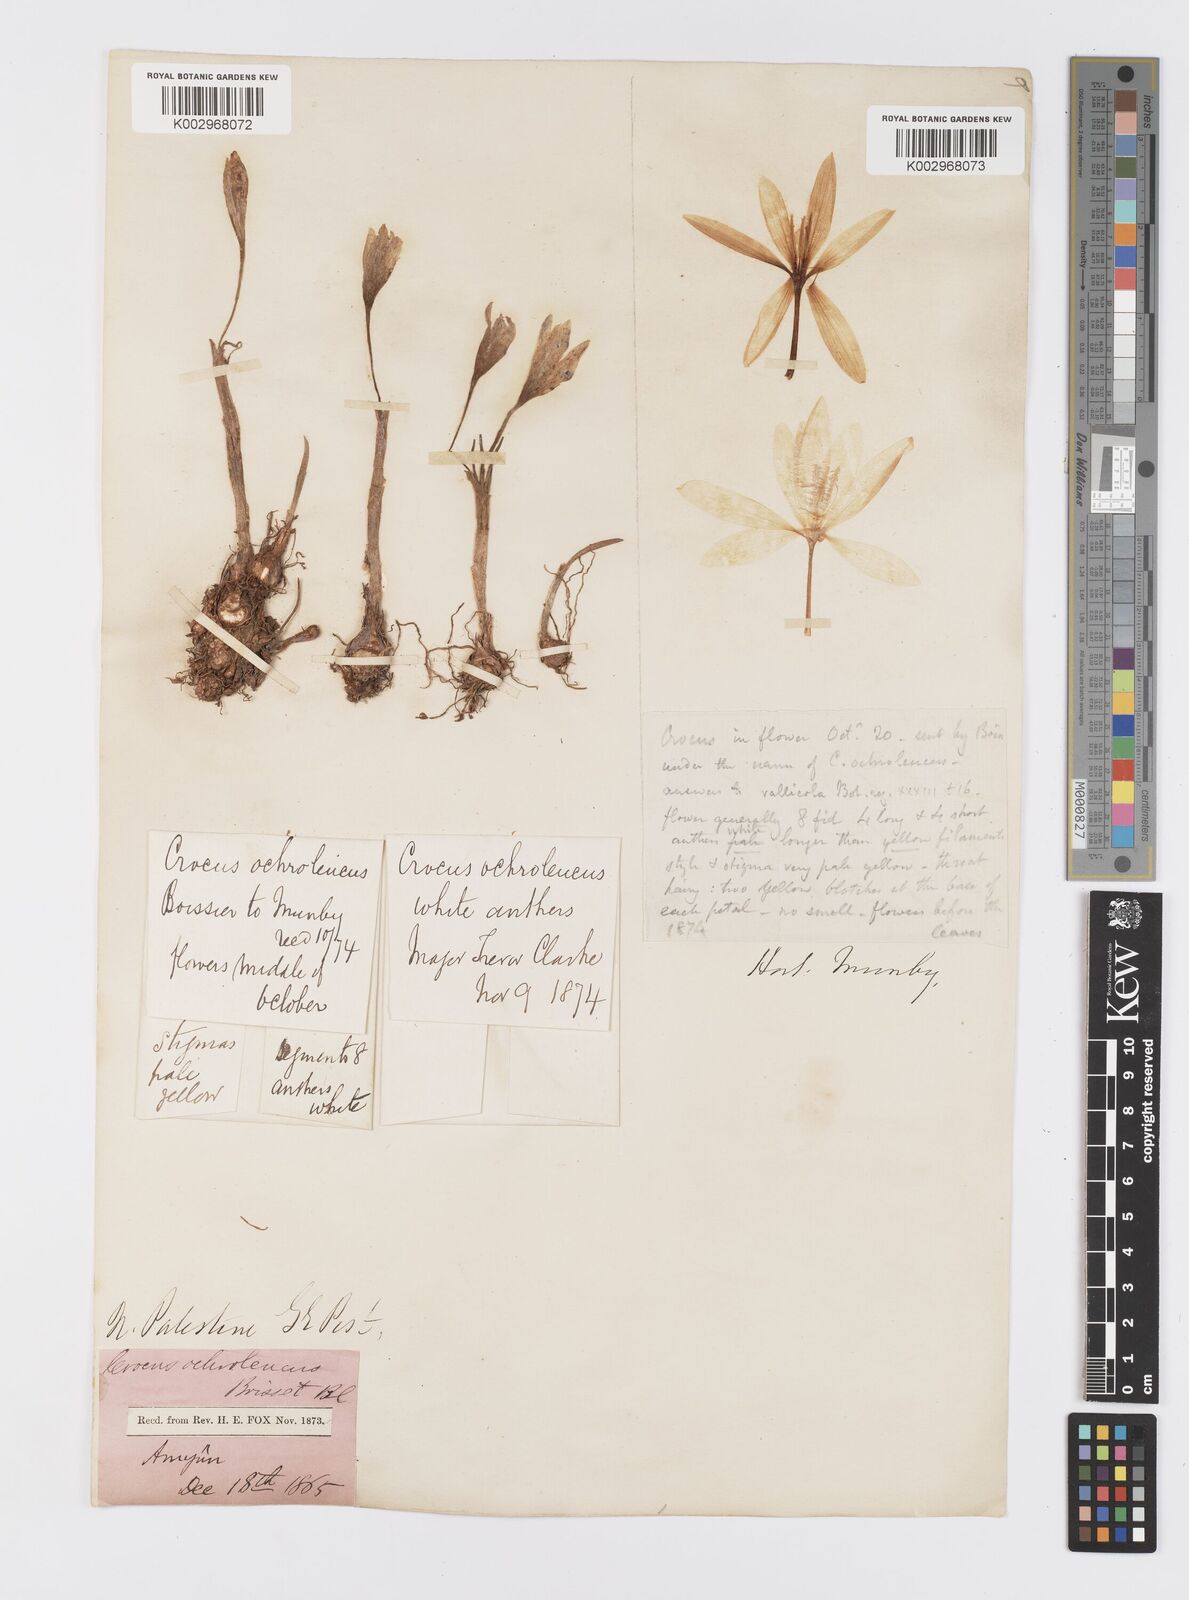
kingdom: Plantae
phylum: Tracheophyta
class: Liliopsida
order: Asparagales
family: Iridaceae
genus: Crocus
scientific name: Crocus ochroleucus
